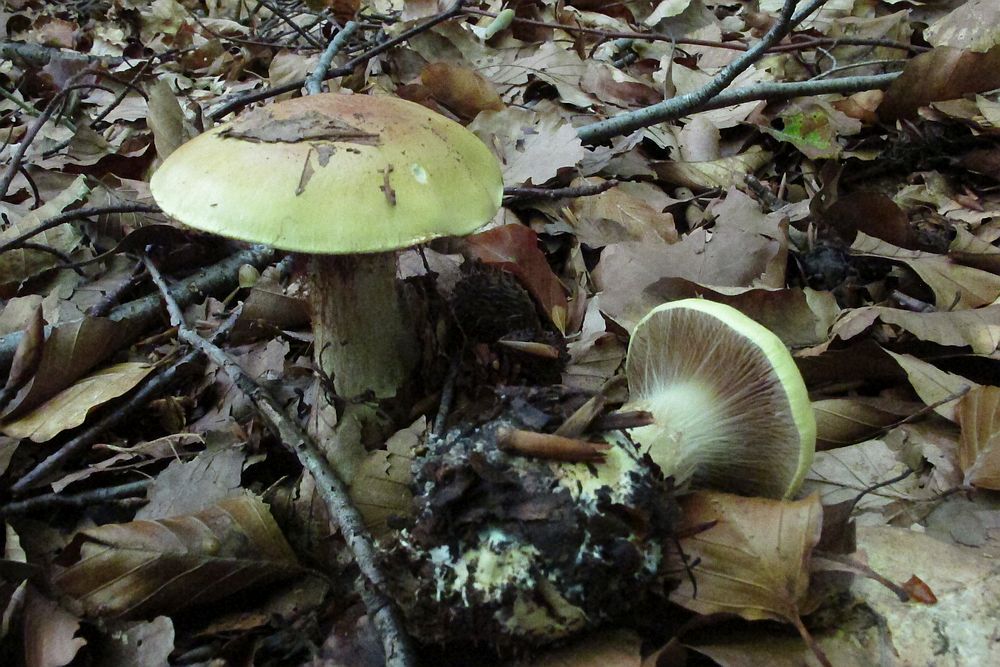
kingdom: Fungi
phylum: Basidiomycota
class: Agaricomycetes
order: Agaricales
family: Cortinariaceae
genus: Calonarius
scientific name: Calonarius elegantissimus
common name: orangegylden slørhat
